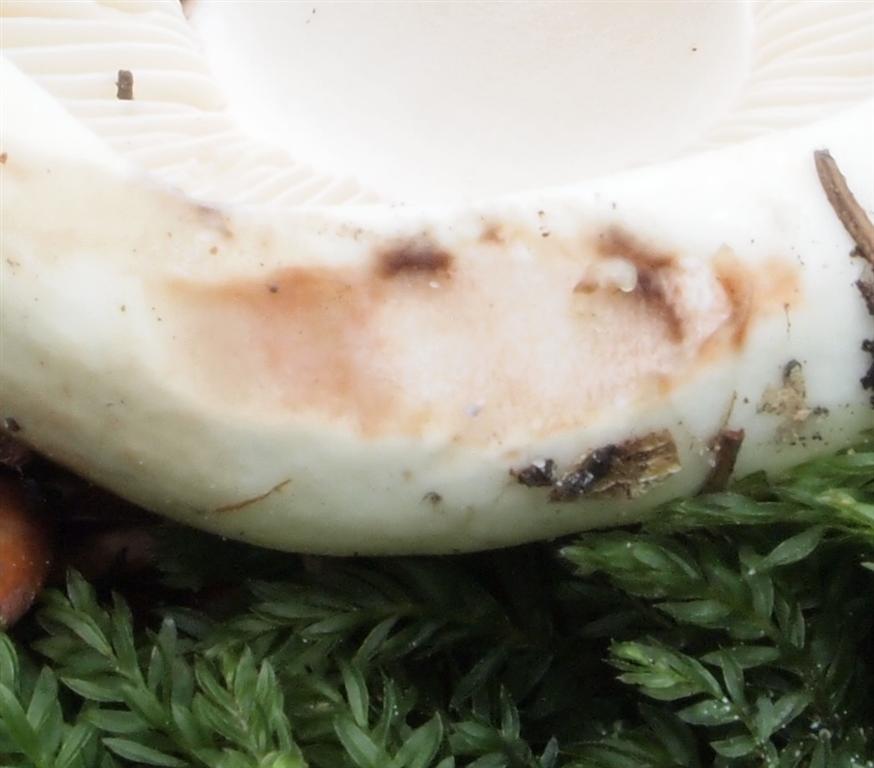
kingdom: Fungi
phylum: Basidiomycota
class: Agaricomycetes
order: Russulales
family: Russulaceae
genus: Russula
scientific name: Russula densifolia
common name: tætbladet skørhat
